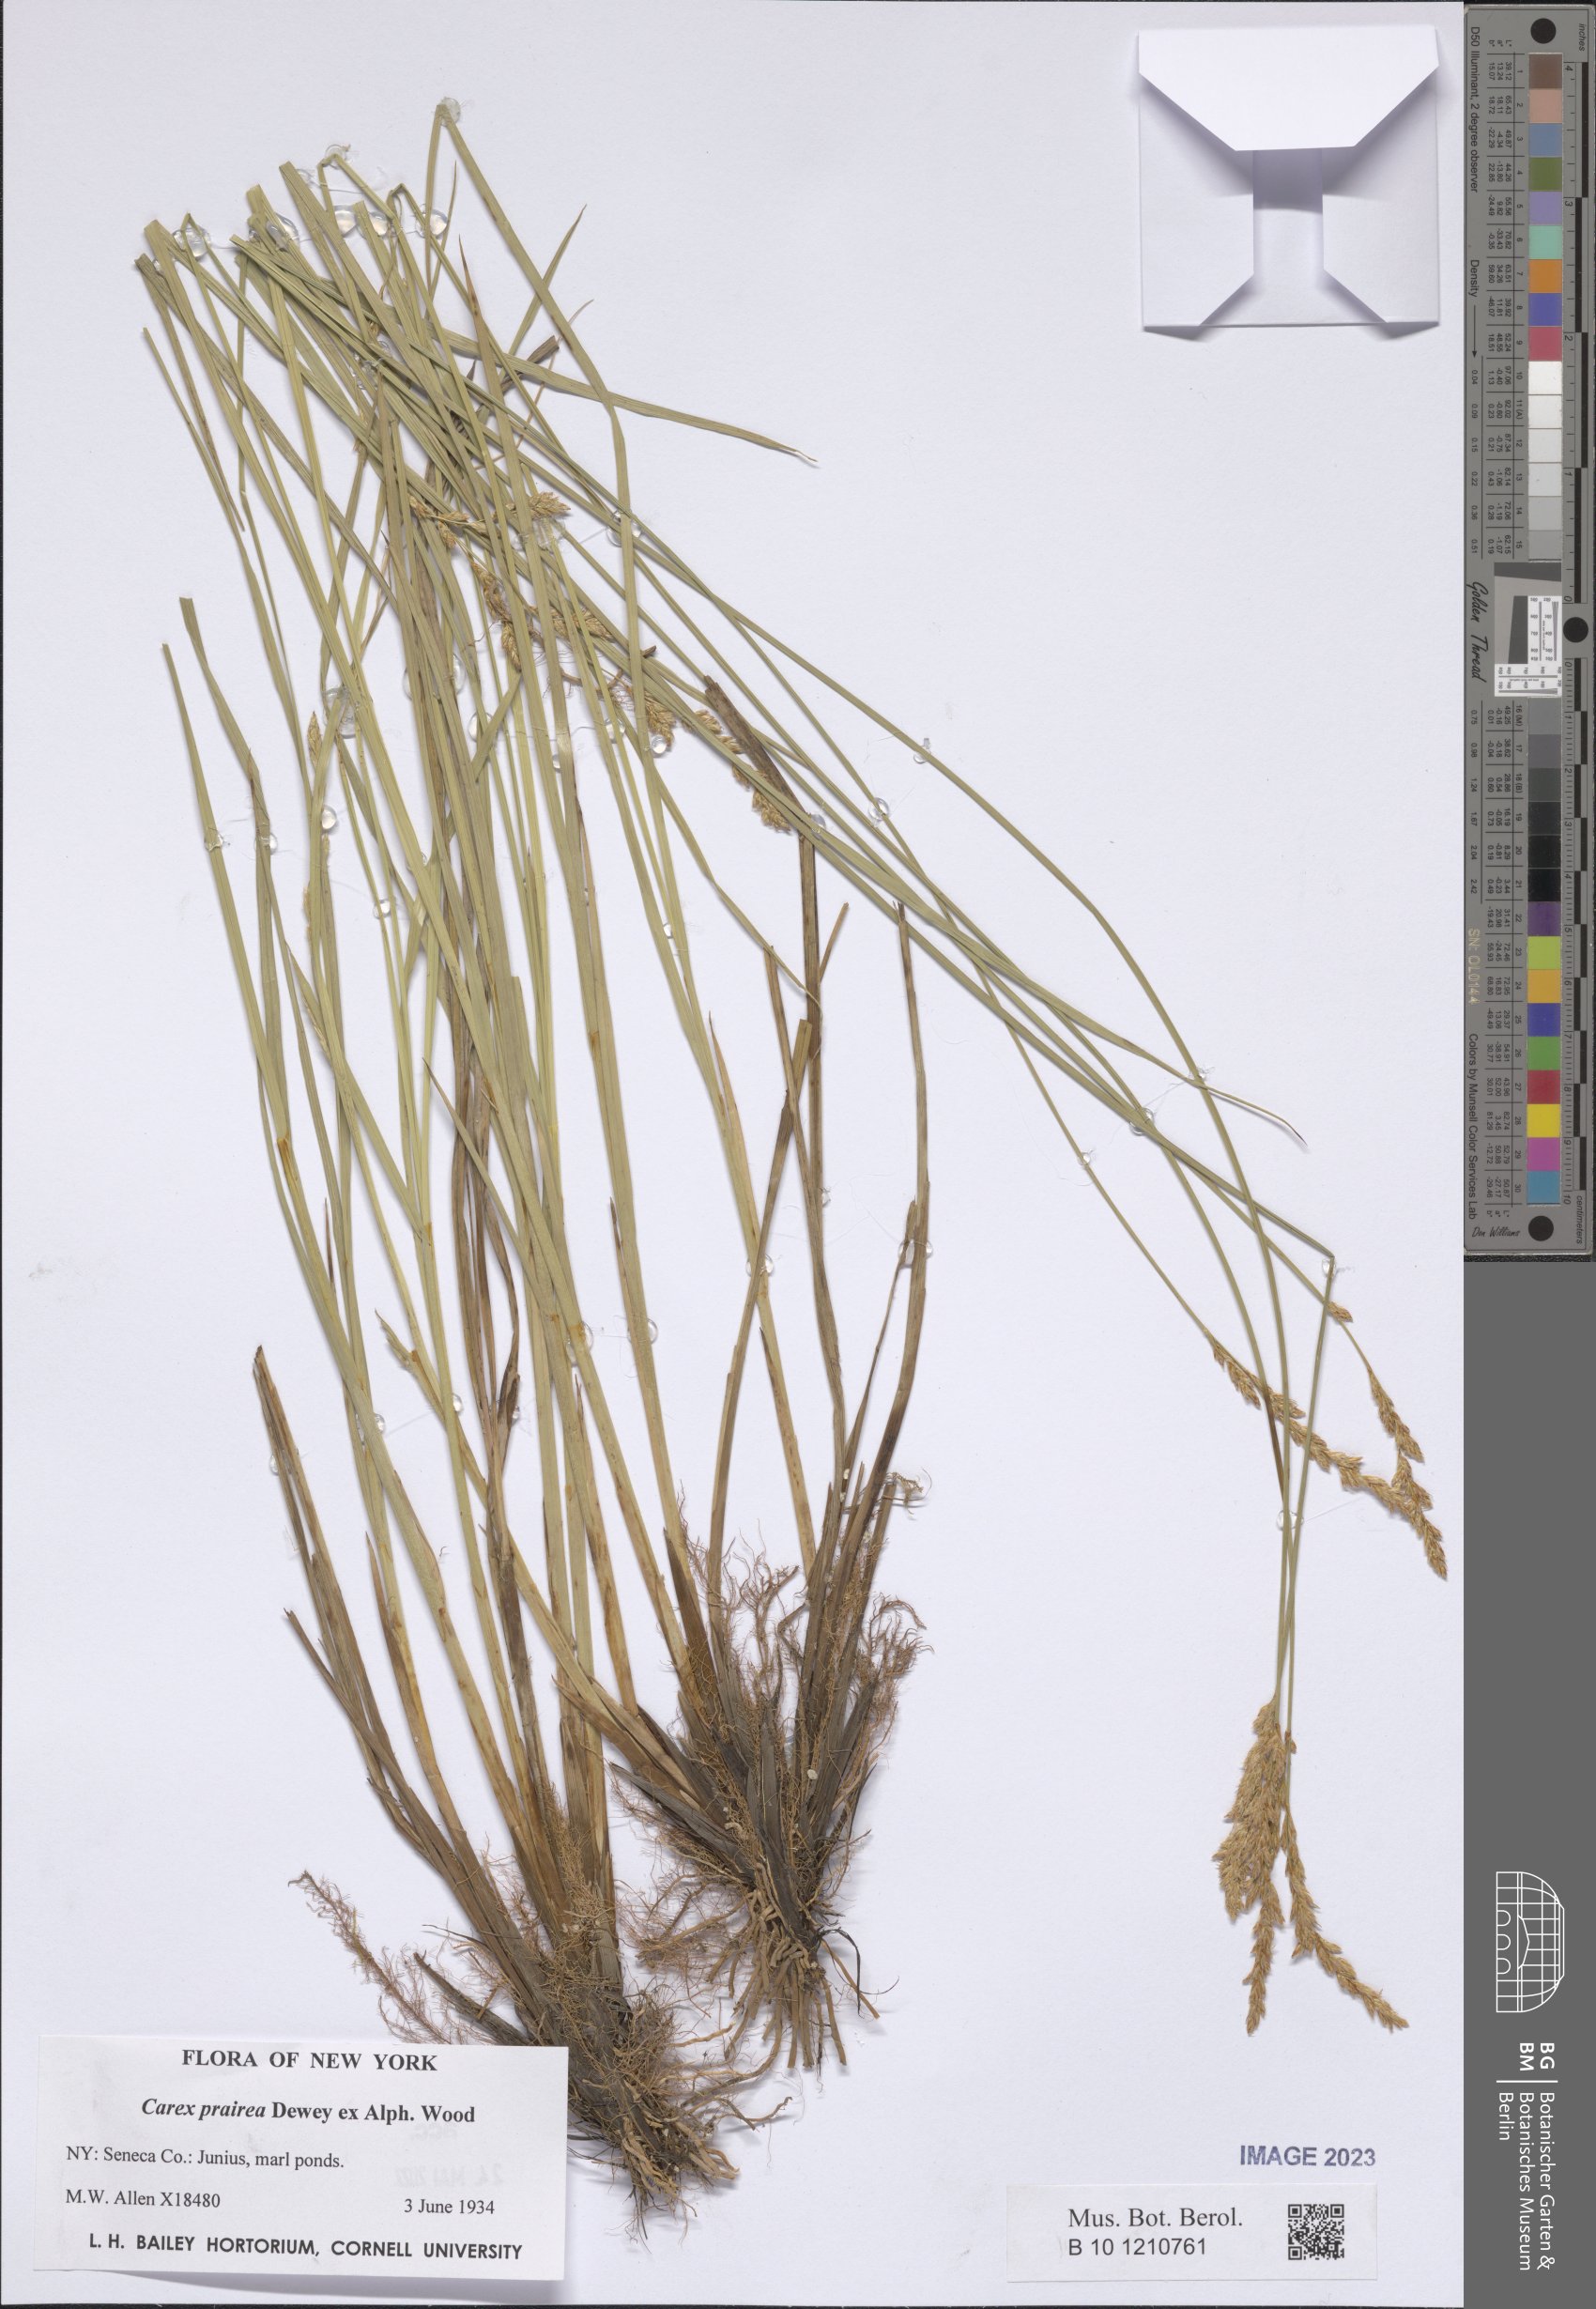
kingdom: Plantae
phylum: Tracheophyta
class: Liliopsida
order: Poales
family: Cyperaceae
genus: Carex
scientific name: Carex prairea
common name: Prairie sedge
